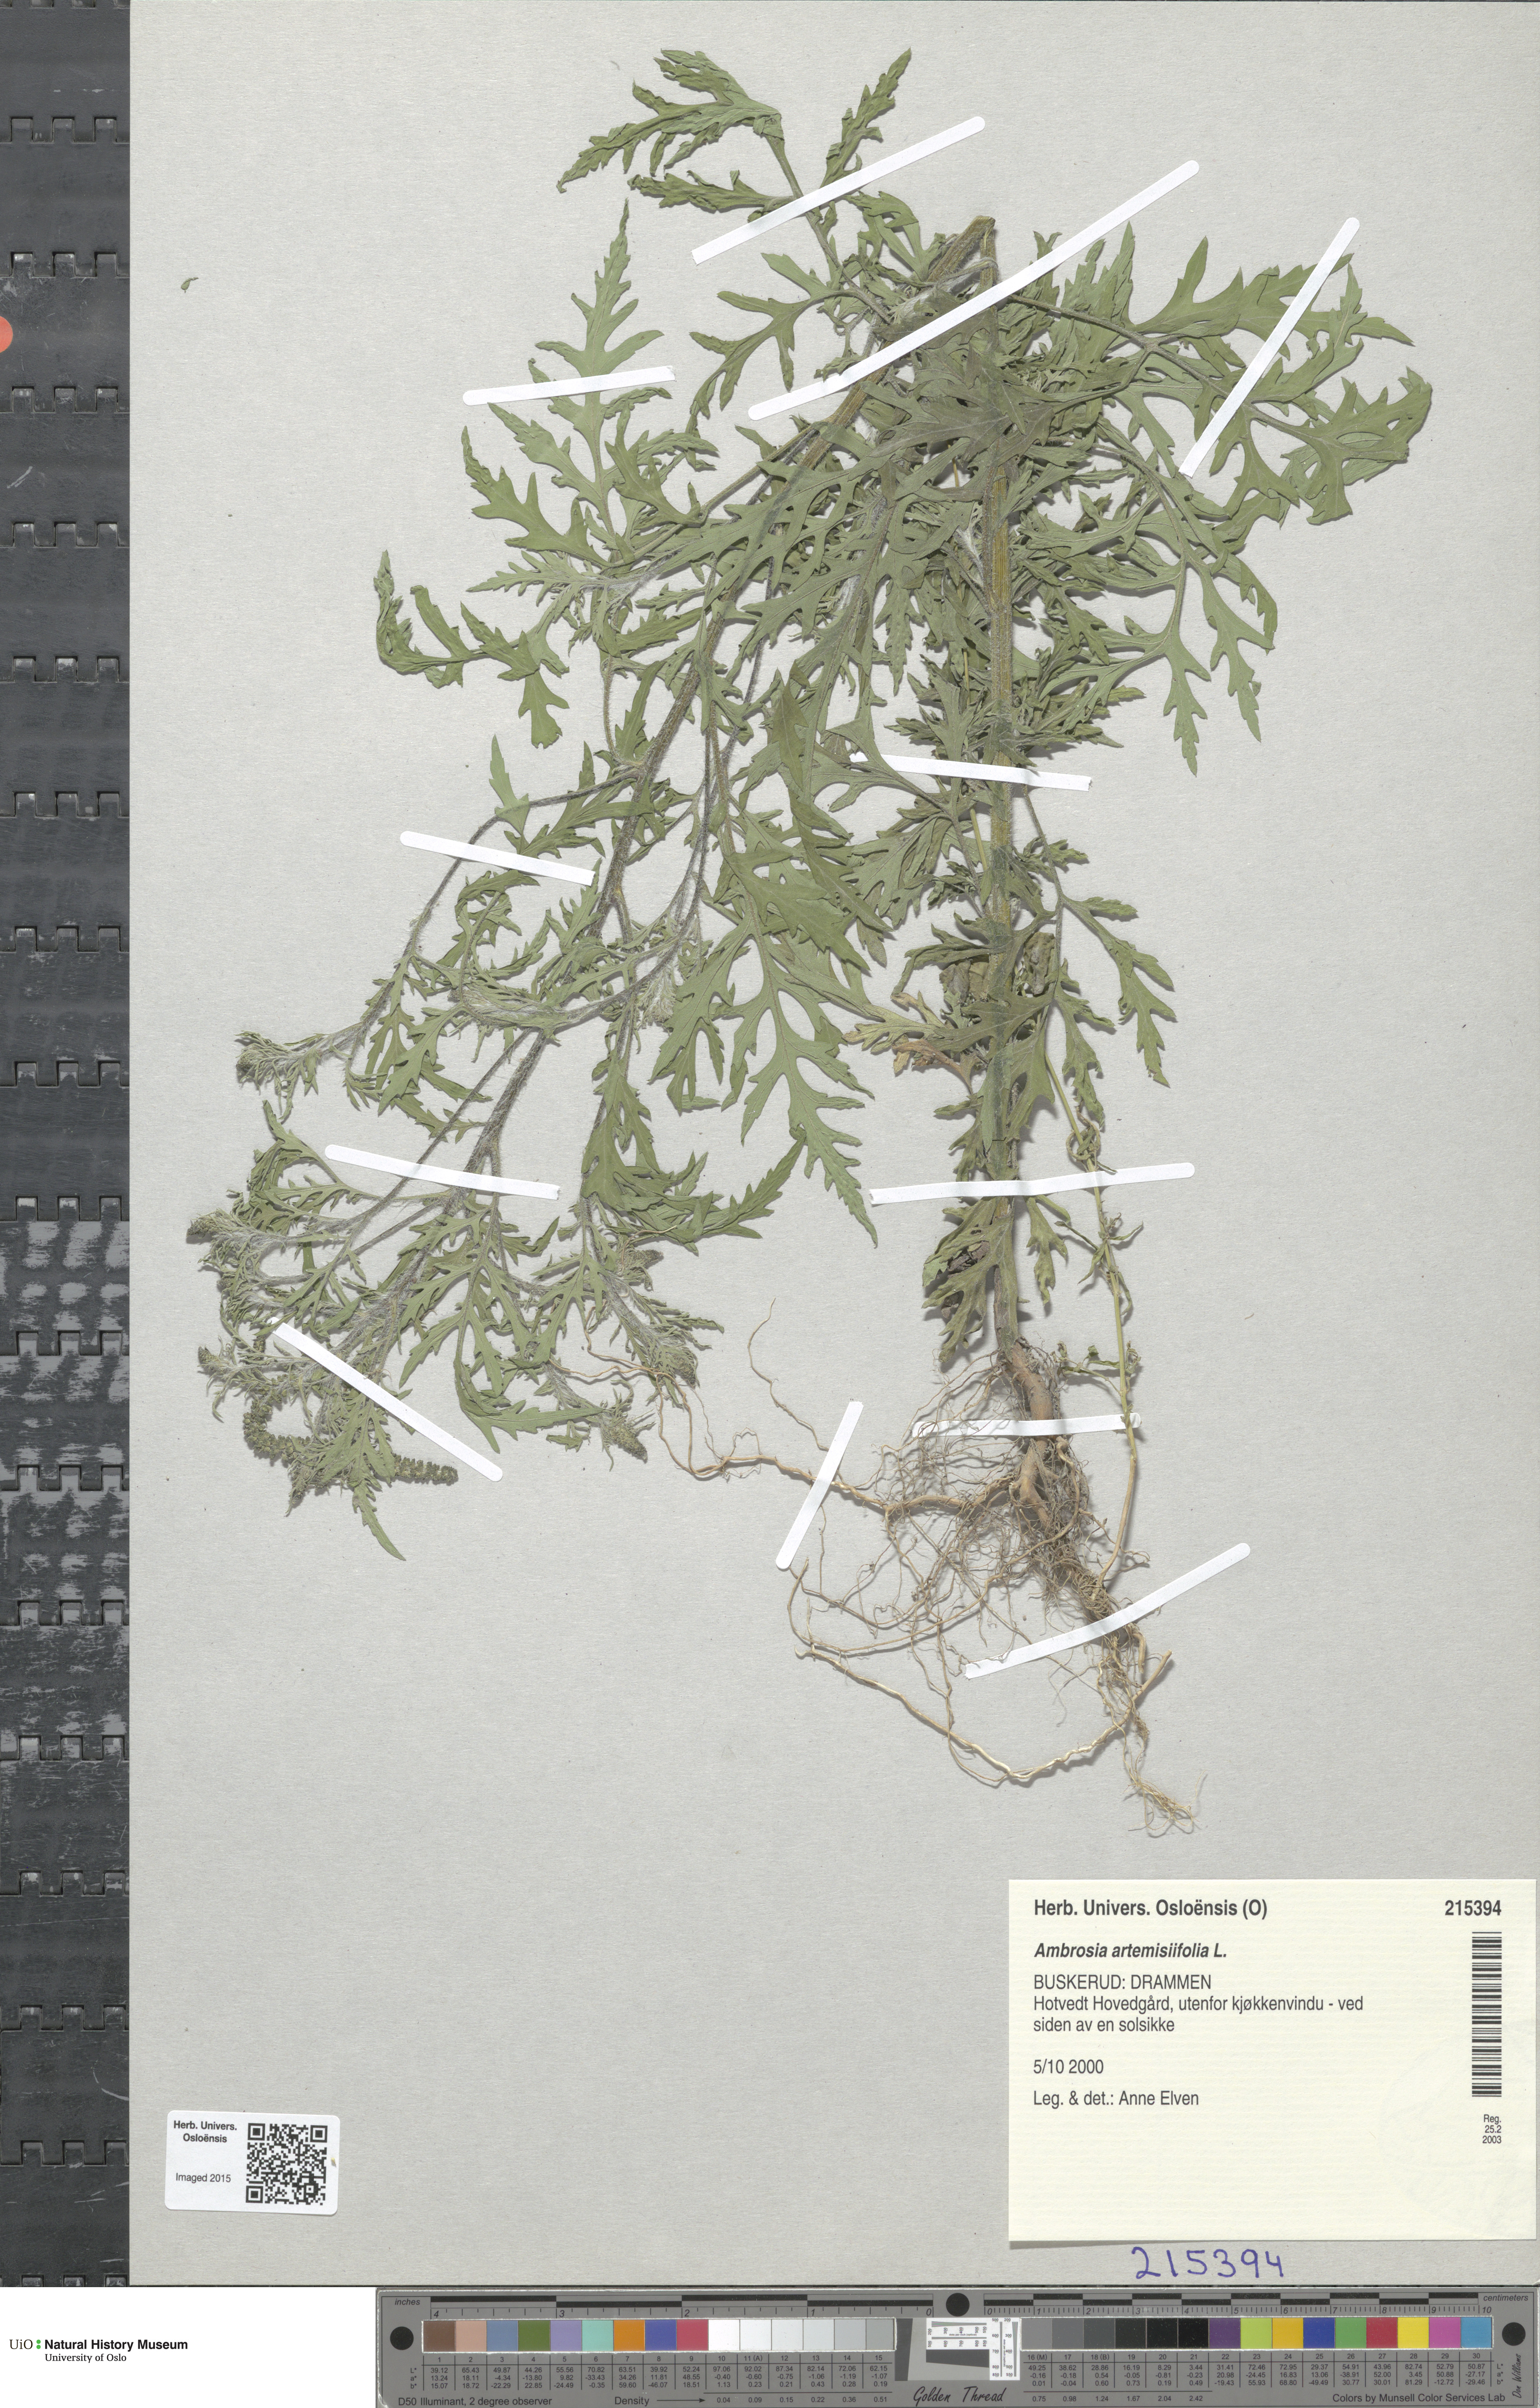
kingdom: Plantae
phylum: Tracheophyta
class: Magnoliopsida
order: Asterales
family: Asteraceae
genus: Ambrosia
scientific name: Ambrosia artemisiifolia
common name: Annual ragweed
